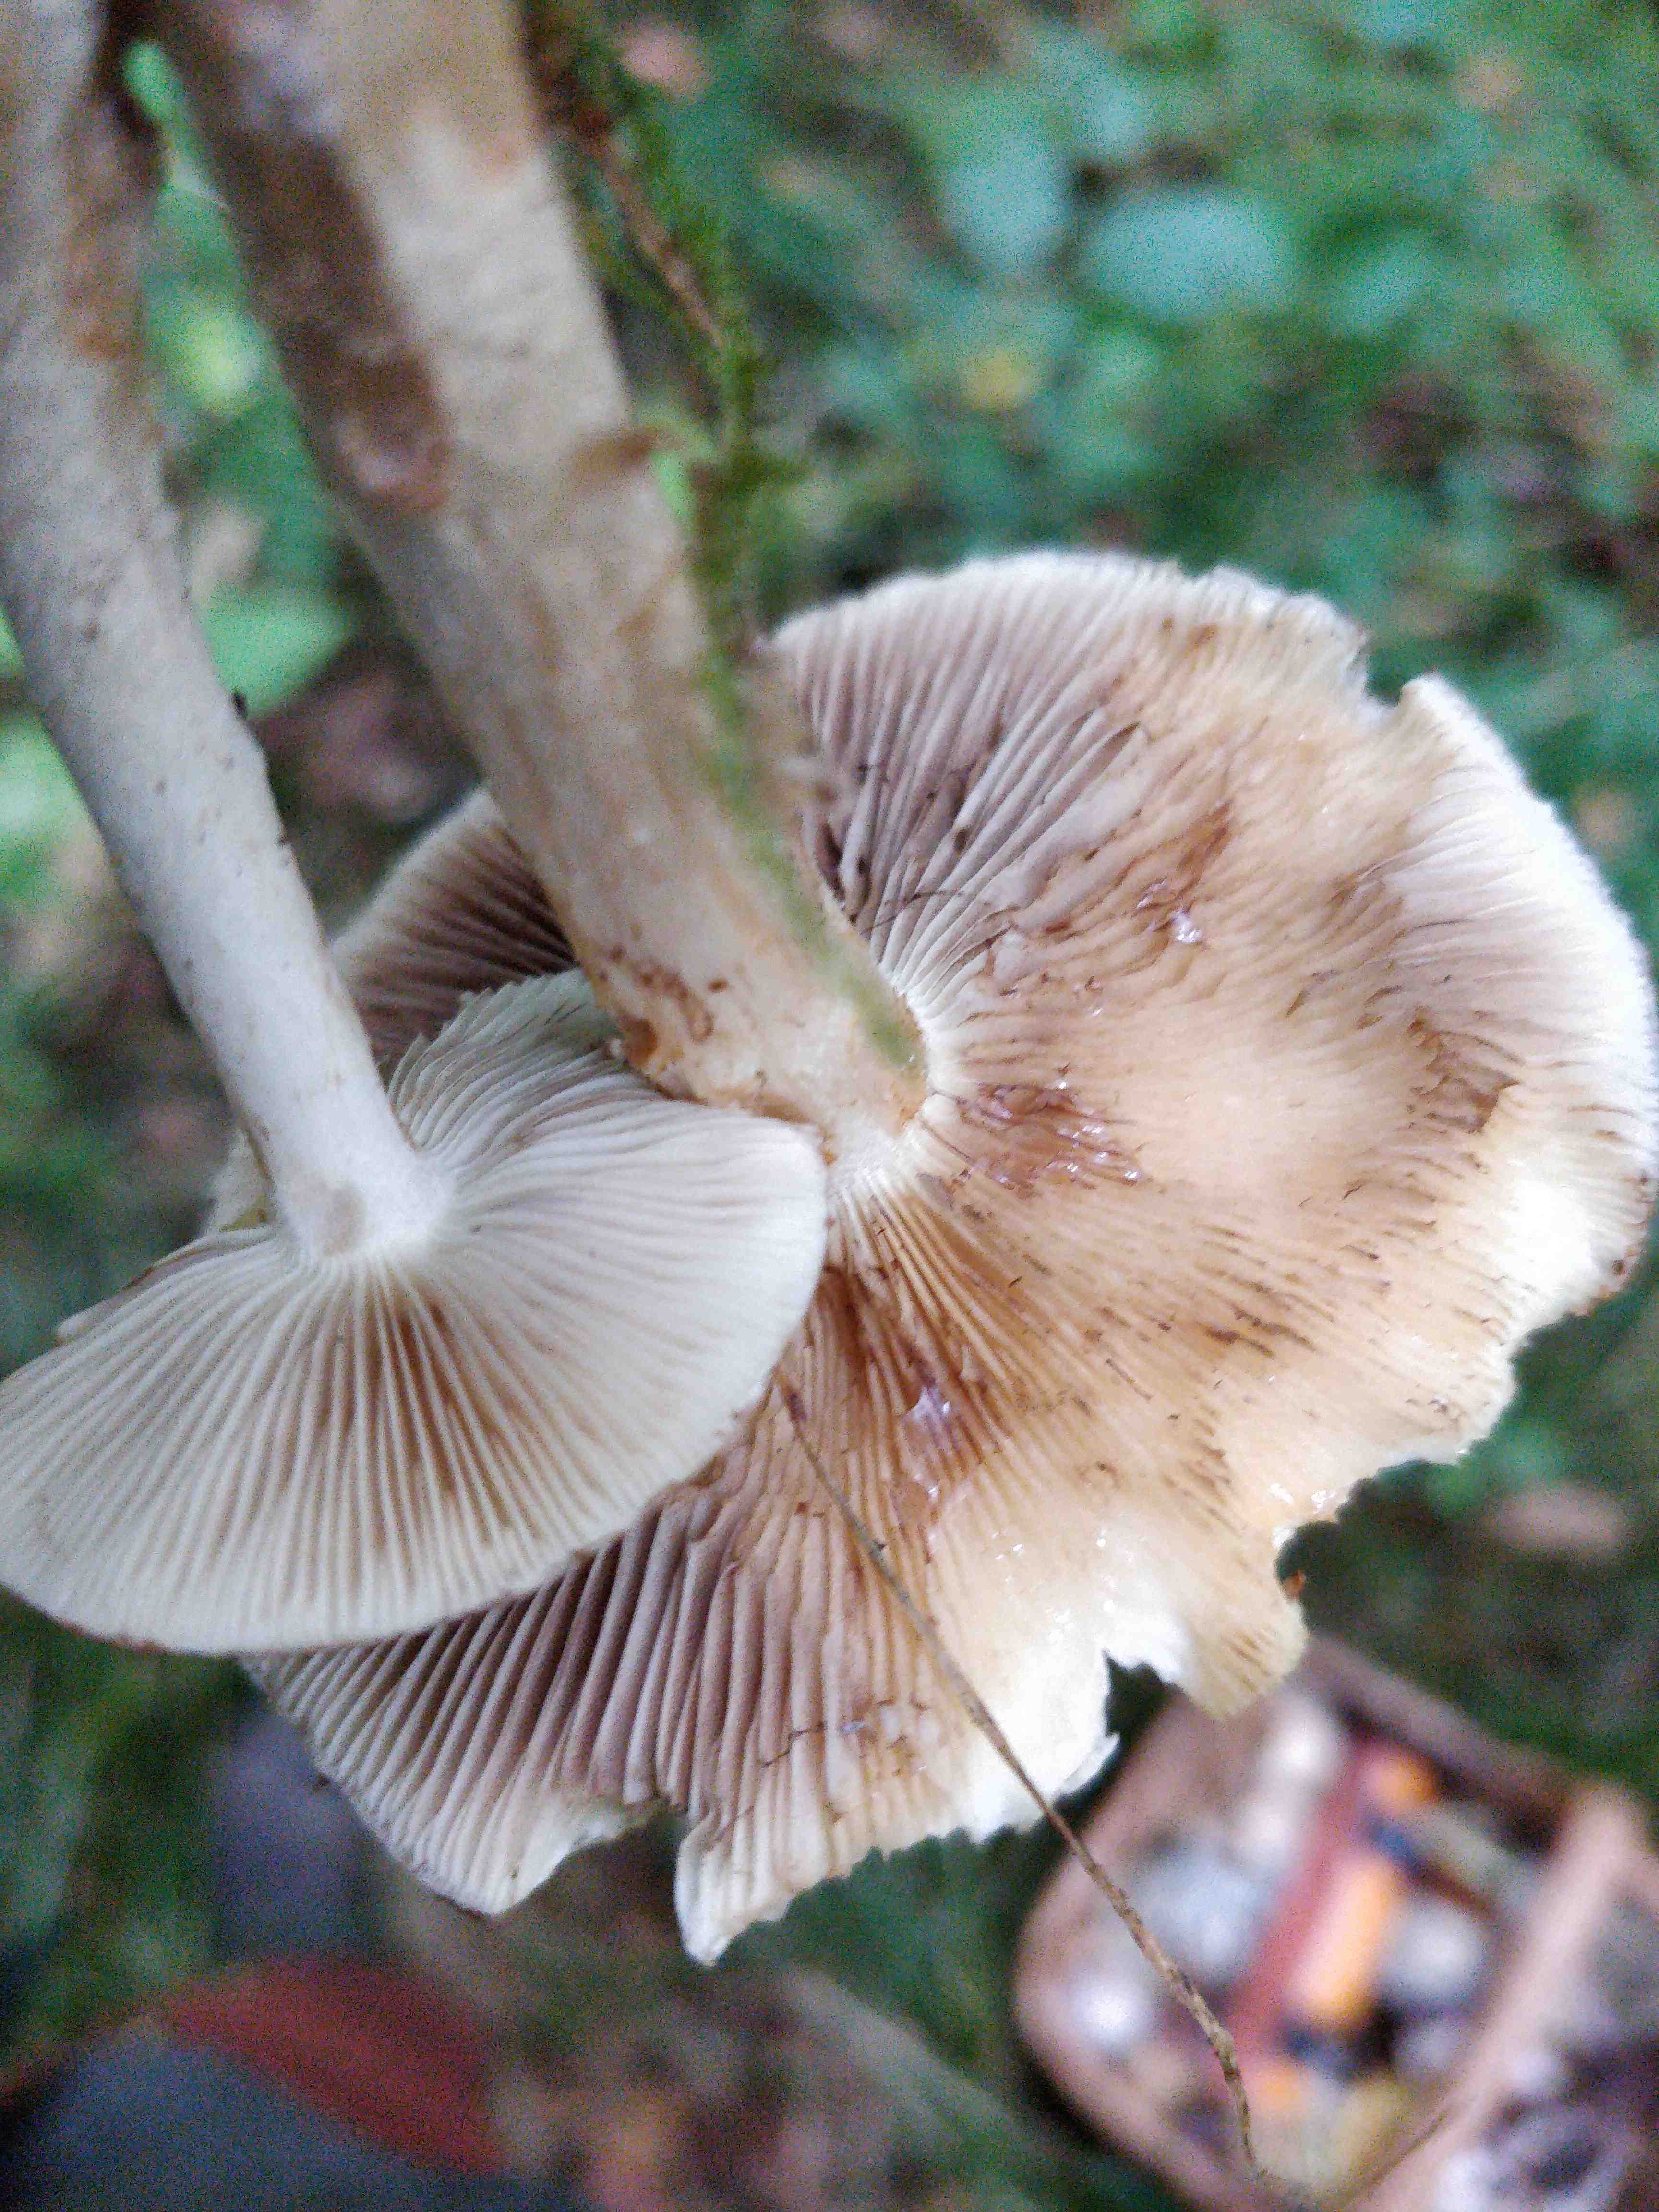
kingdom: Fungi
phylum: Basidiomycota
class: Agaricomycetes
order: Agaricales
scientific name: Agaricales
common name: champignonordenen
